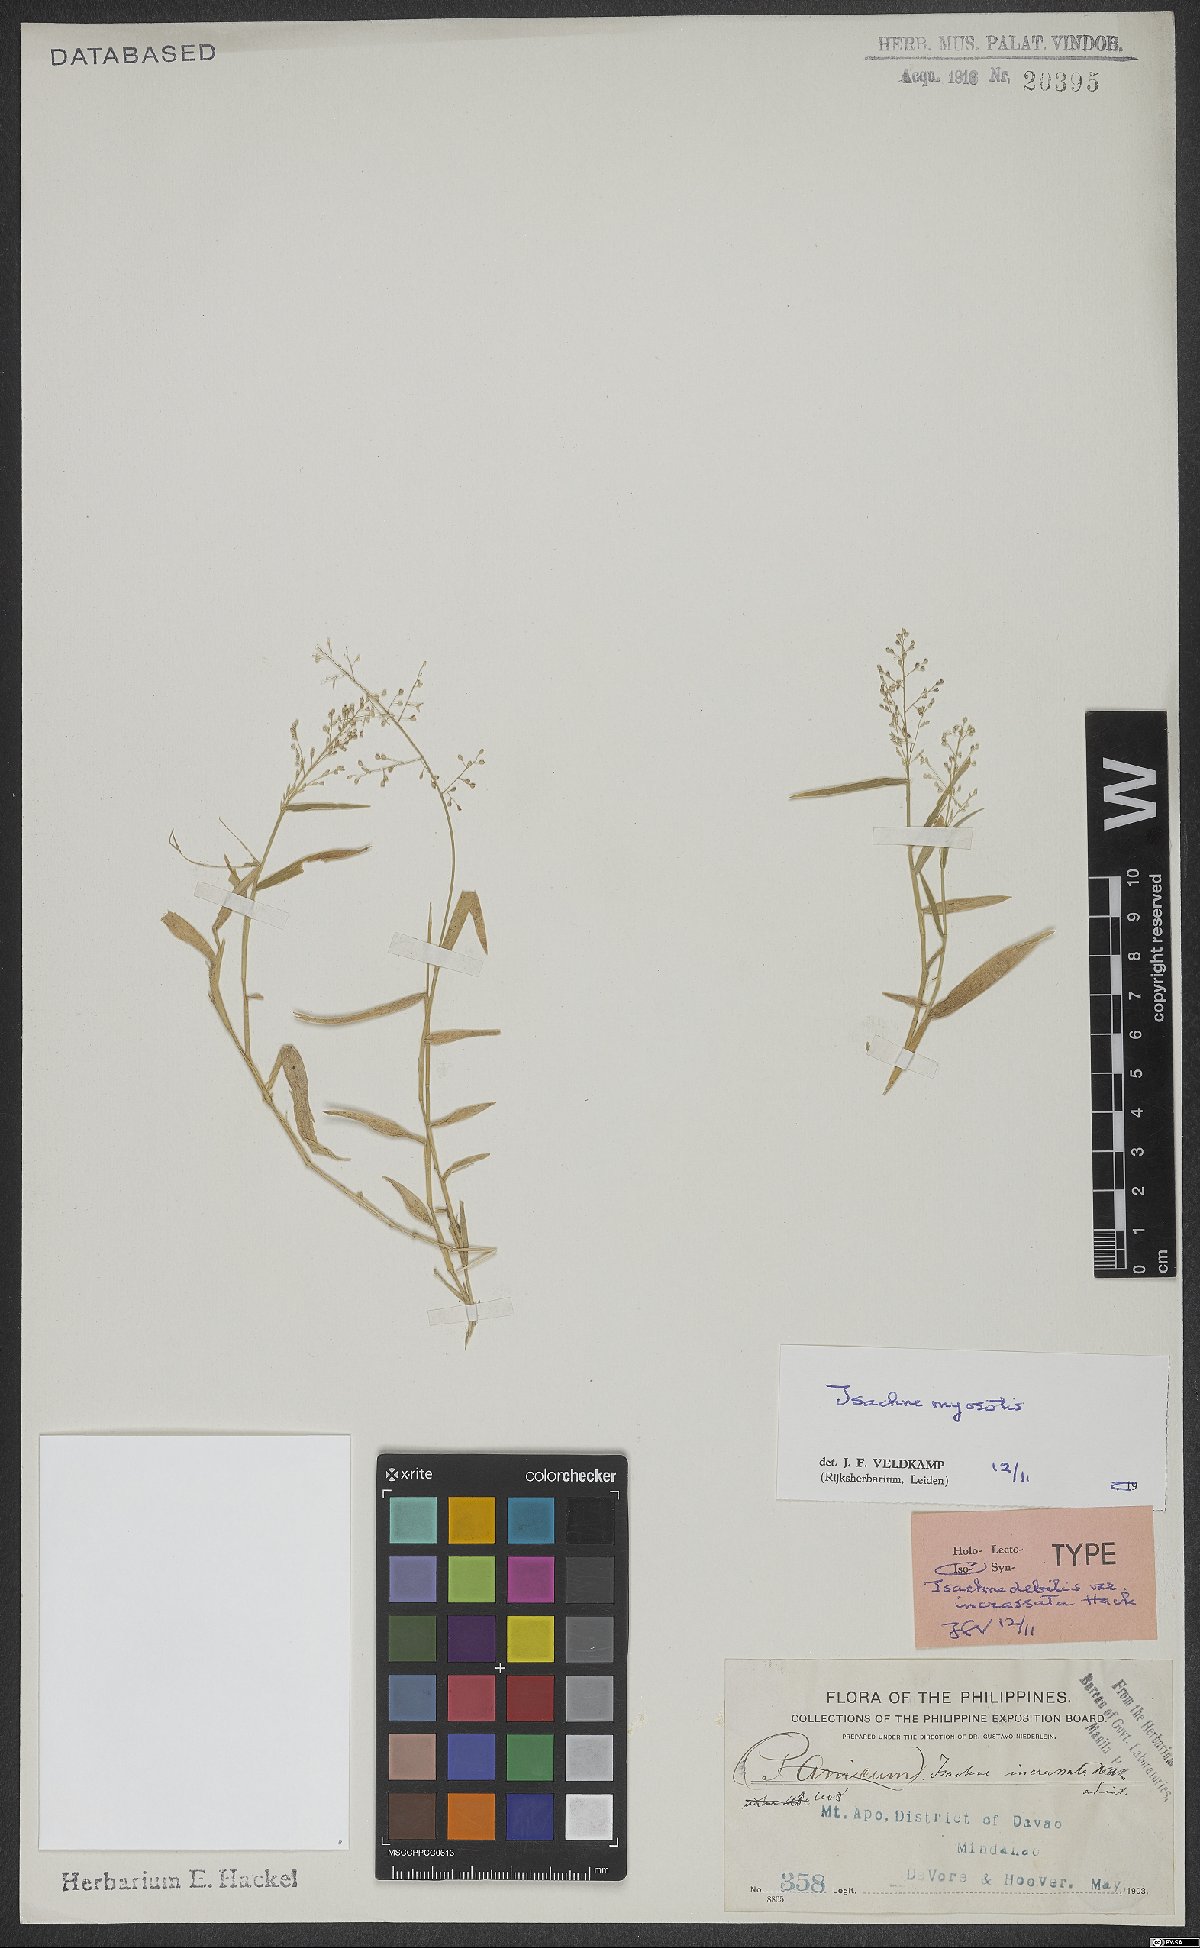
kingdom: Plantae
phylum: Tracheophyta
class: Liliopsida
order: Poales
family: Poaceae
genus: Isachne
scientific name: Isachne myosotis
